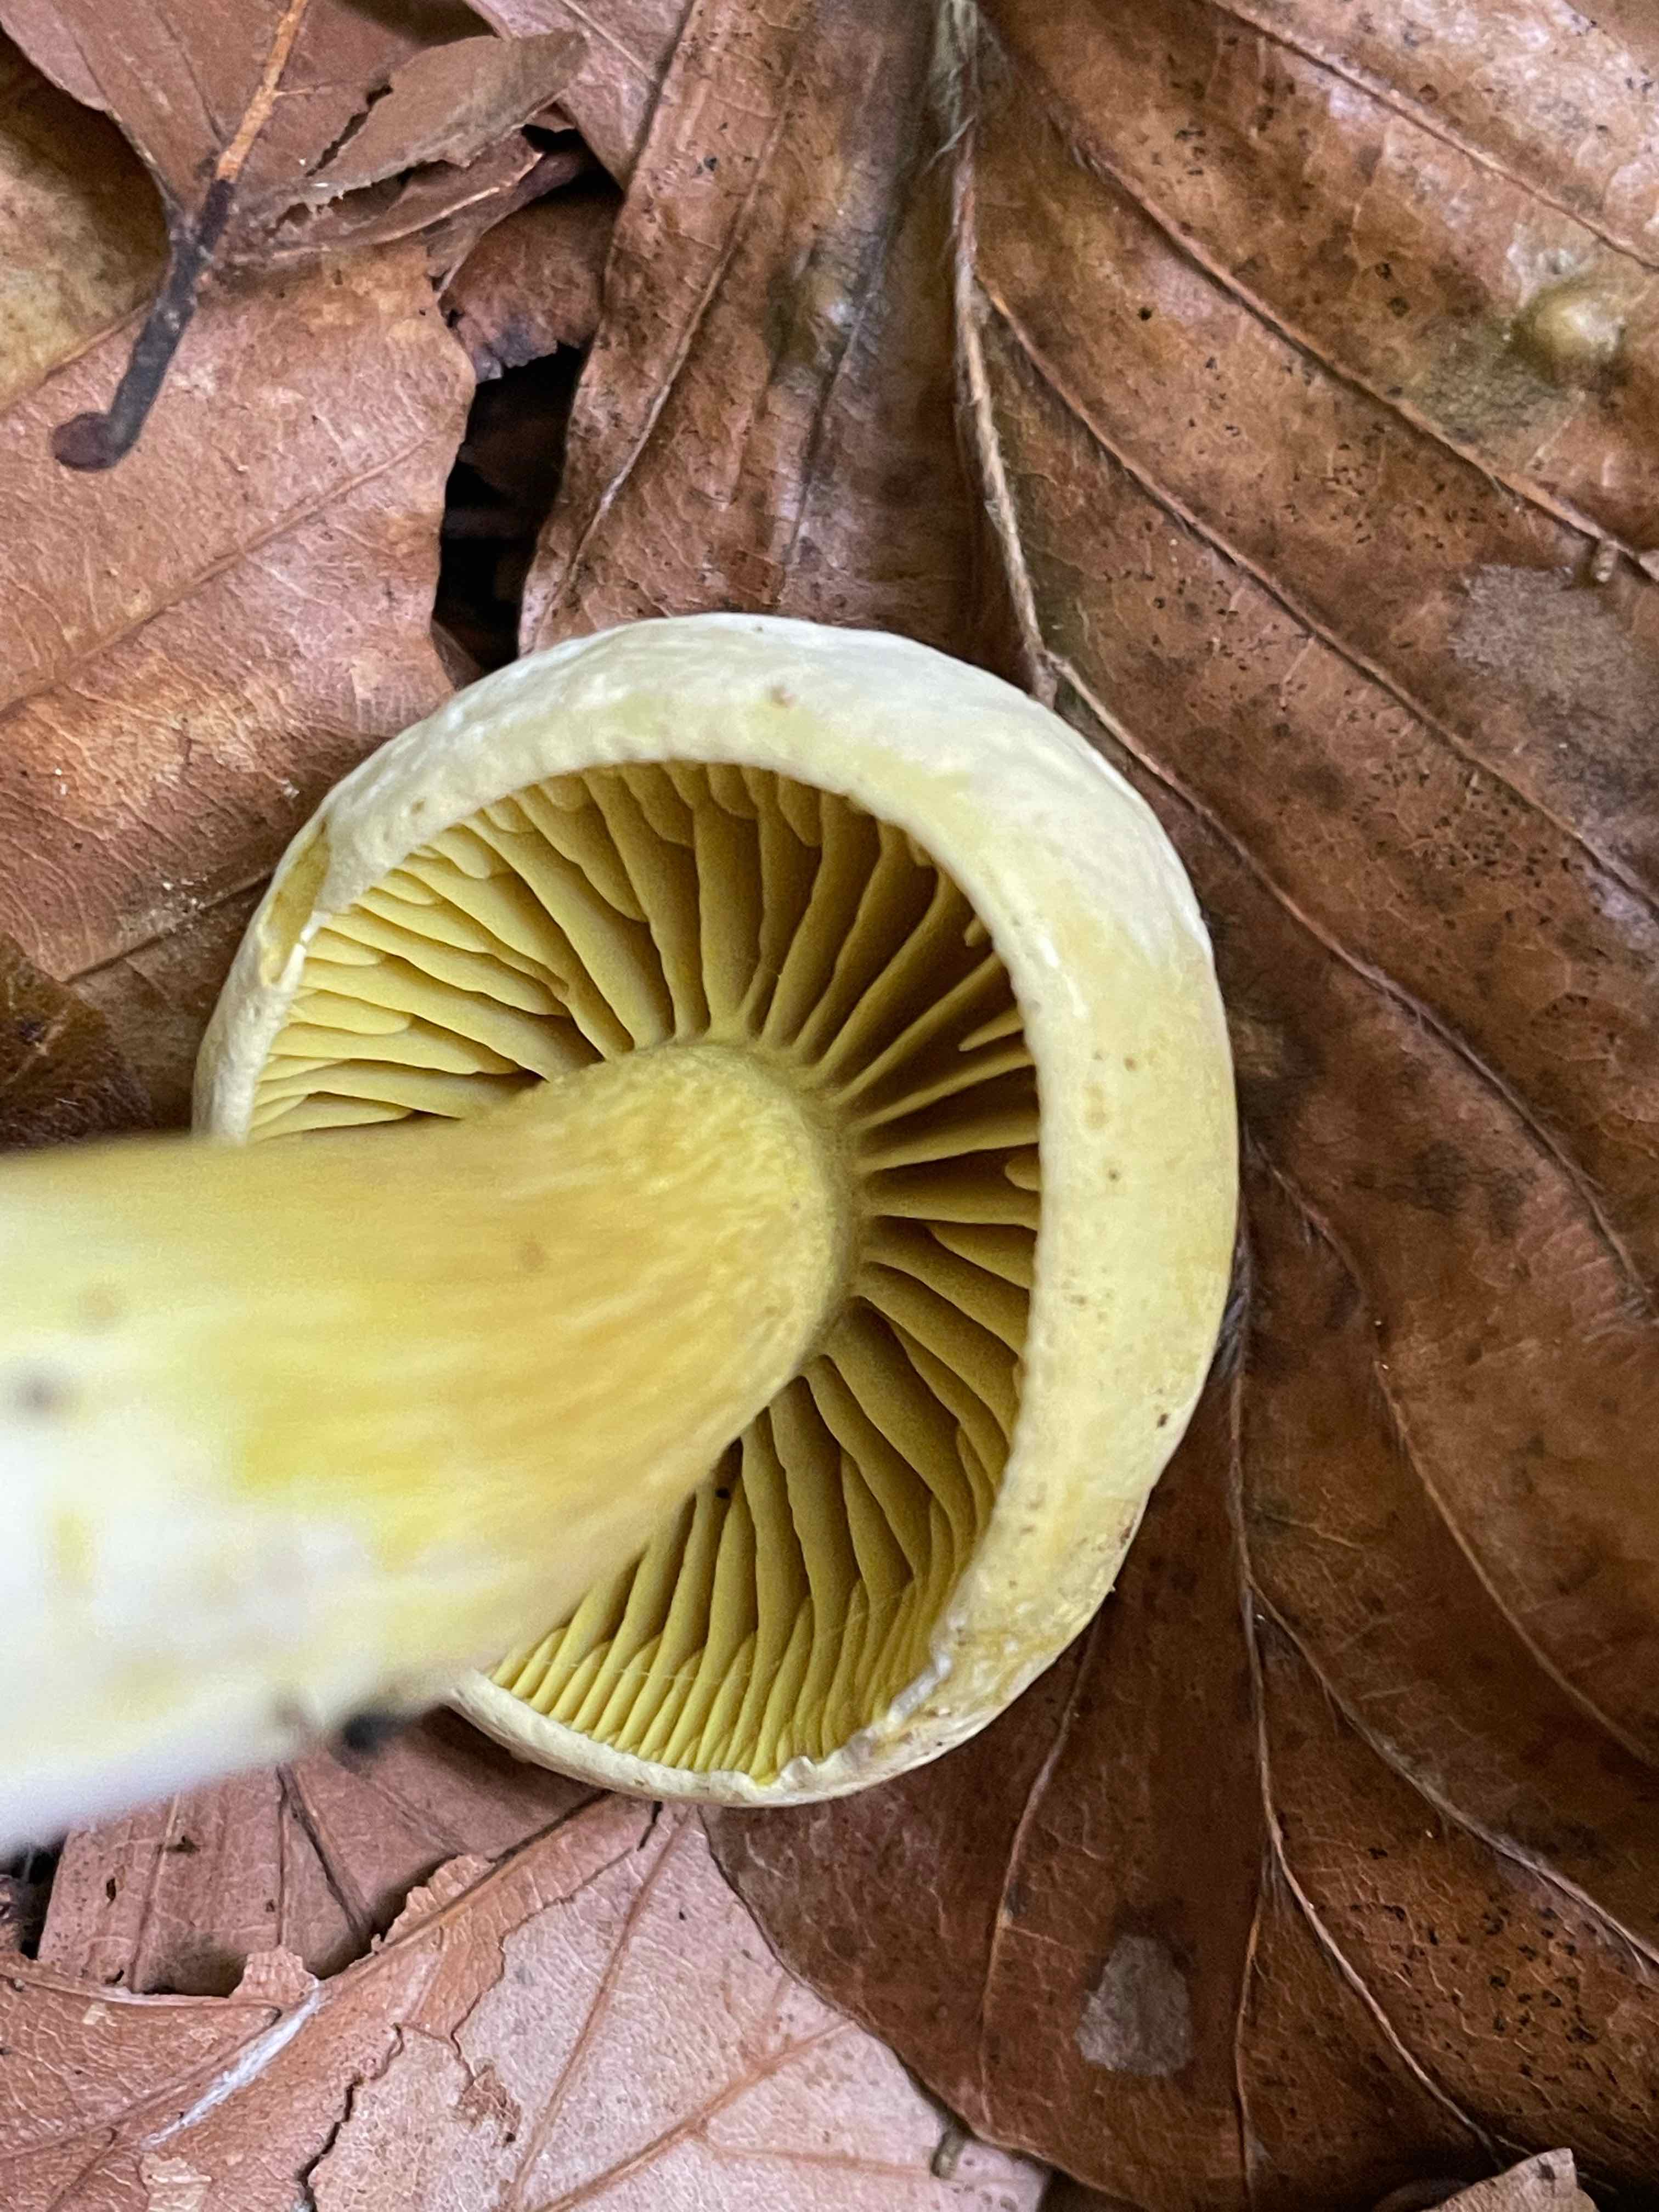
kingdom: Fungi
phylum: Basidiomycota
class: Agaricomycetes
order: Agaricales
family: Tricholomataceae
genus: Tricholoma
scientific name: Tricholoma sulphureum
